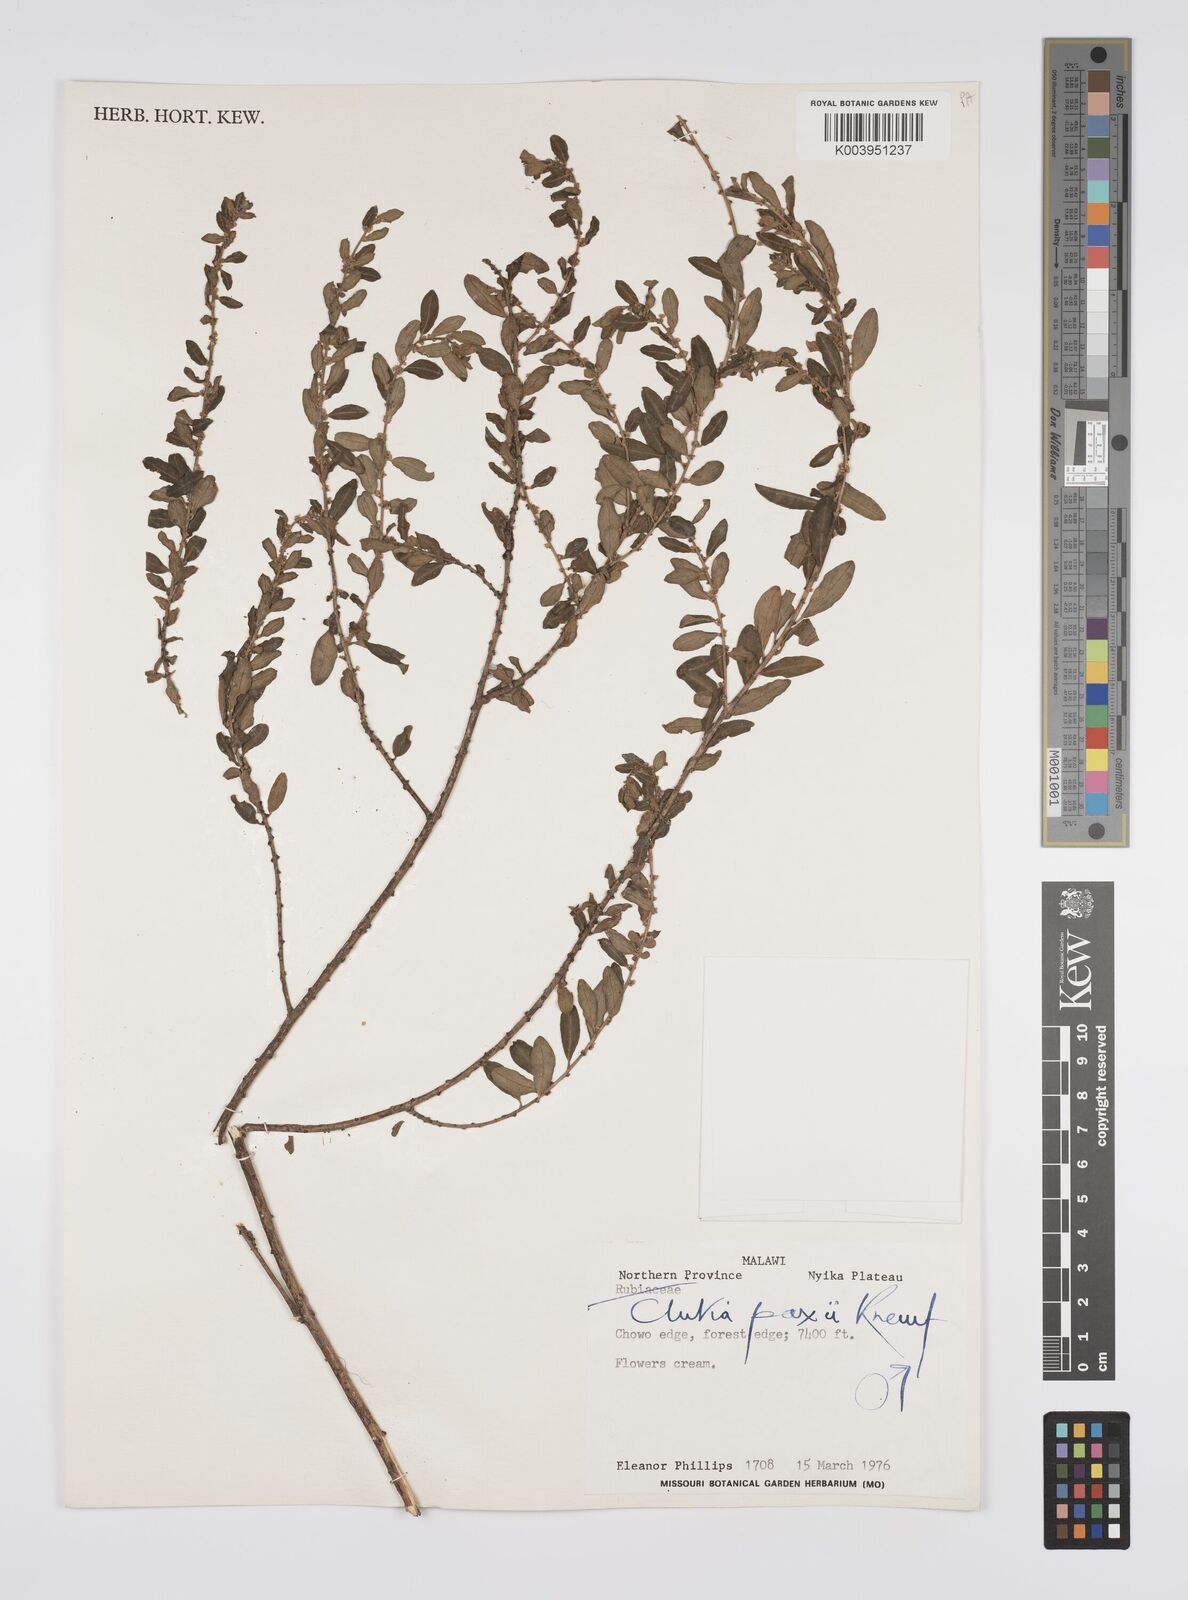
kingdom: Plantae
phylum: Tracheophyta
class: Magnoliopsida
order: Malpighiales
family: Peraceae
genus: Clutia
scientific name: Clutia paxii
